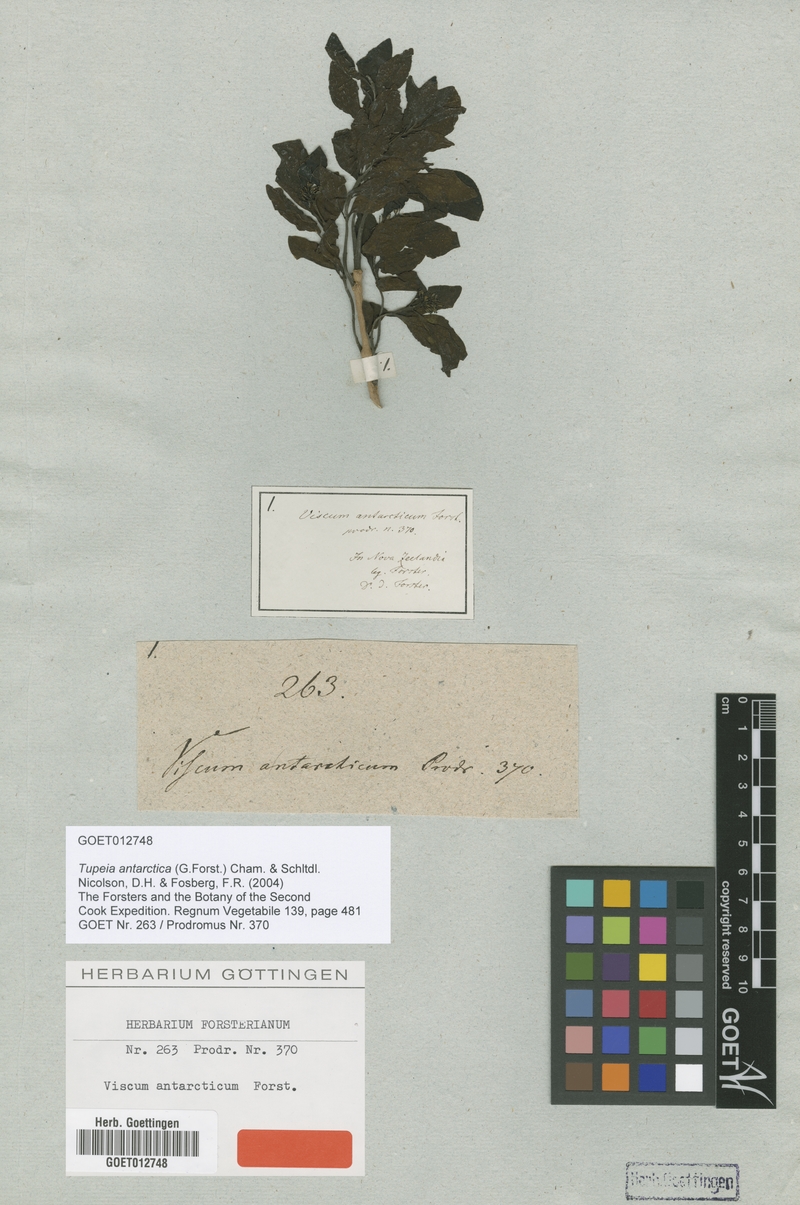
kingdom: Plantae
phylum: Tracheophyta
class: Magnoliopsida
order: Santalales
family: Loranthaceae
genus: Tupeia
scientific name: Tupeia antarctica
